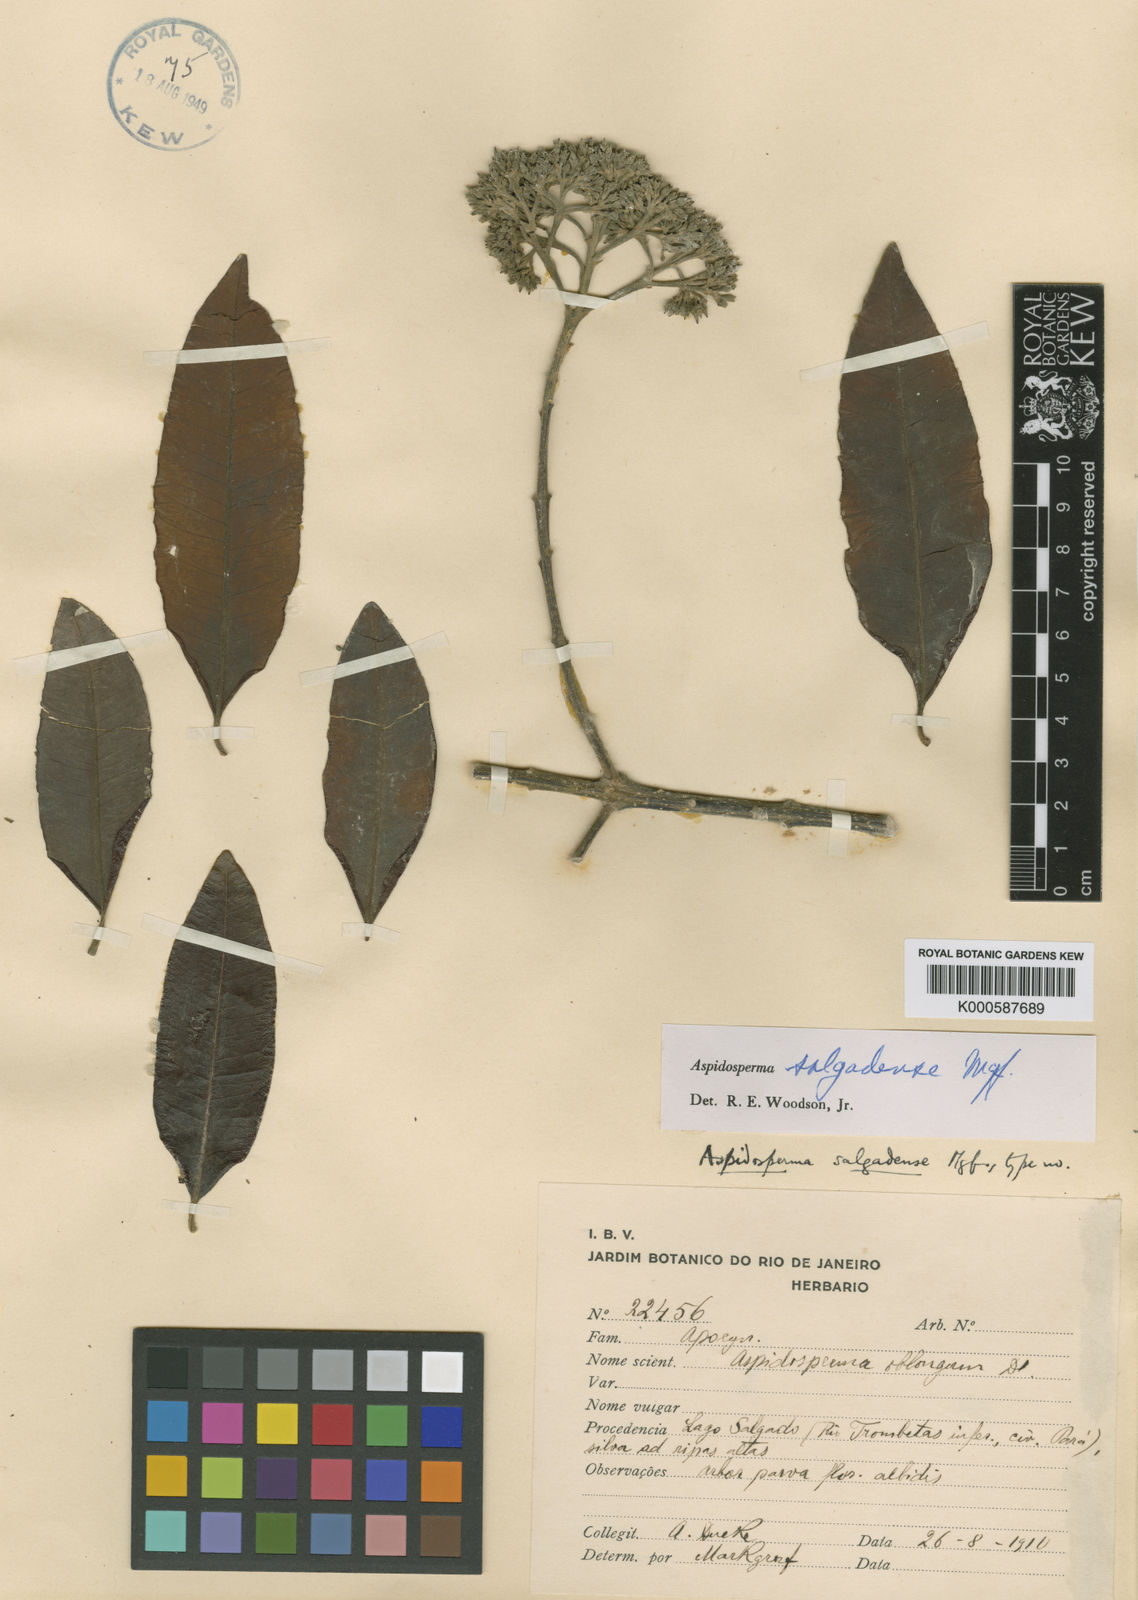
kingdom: Plantae
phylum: Tracheophyta
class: Magnoliopsida
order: Gentianales
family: Apocynaceae
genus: Aspidosperma
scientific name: Aspidosperma salgadense
